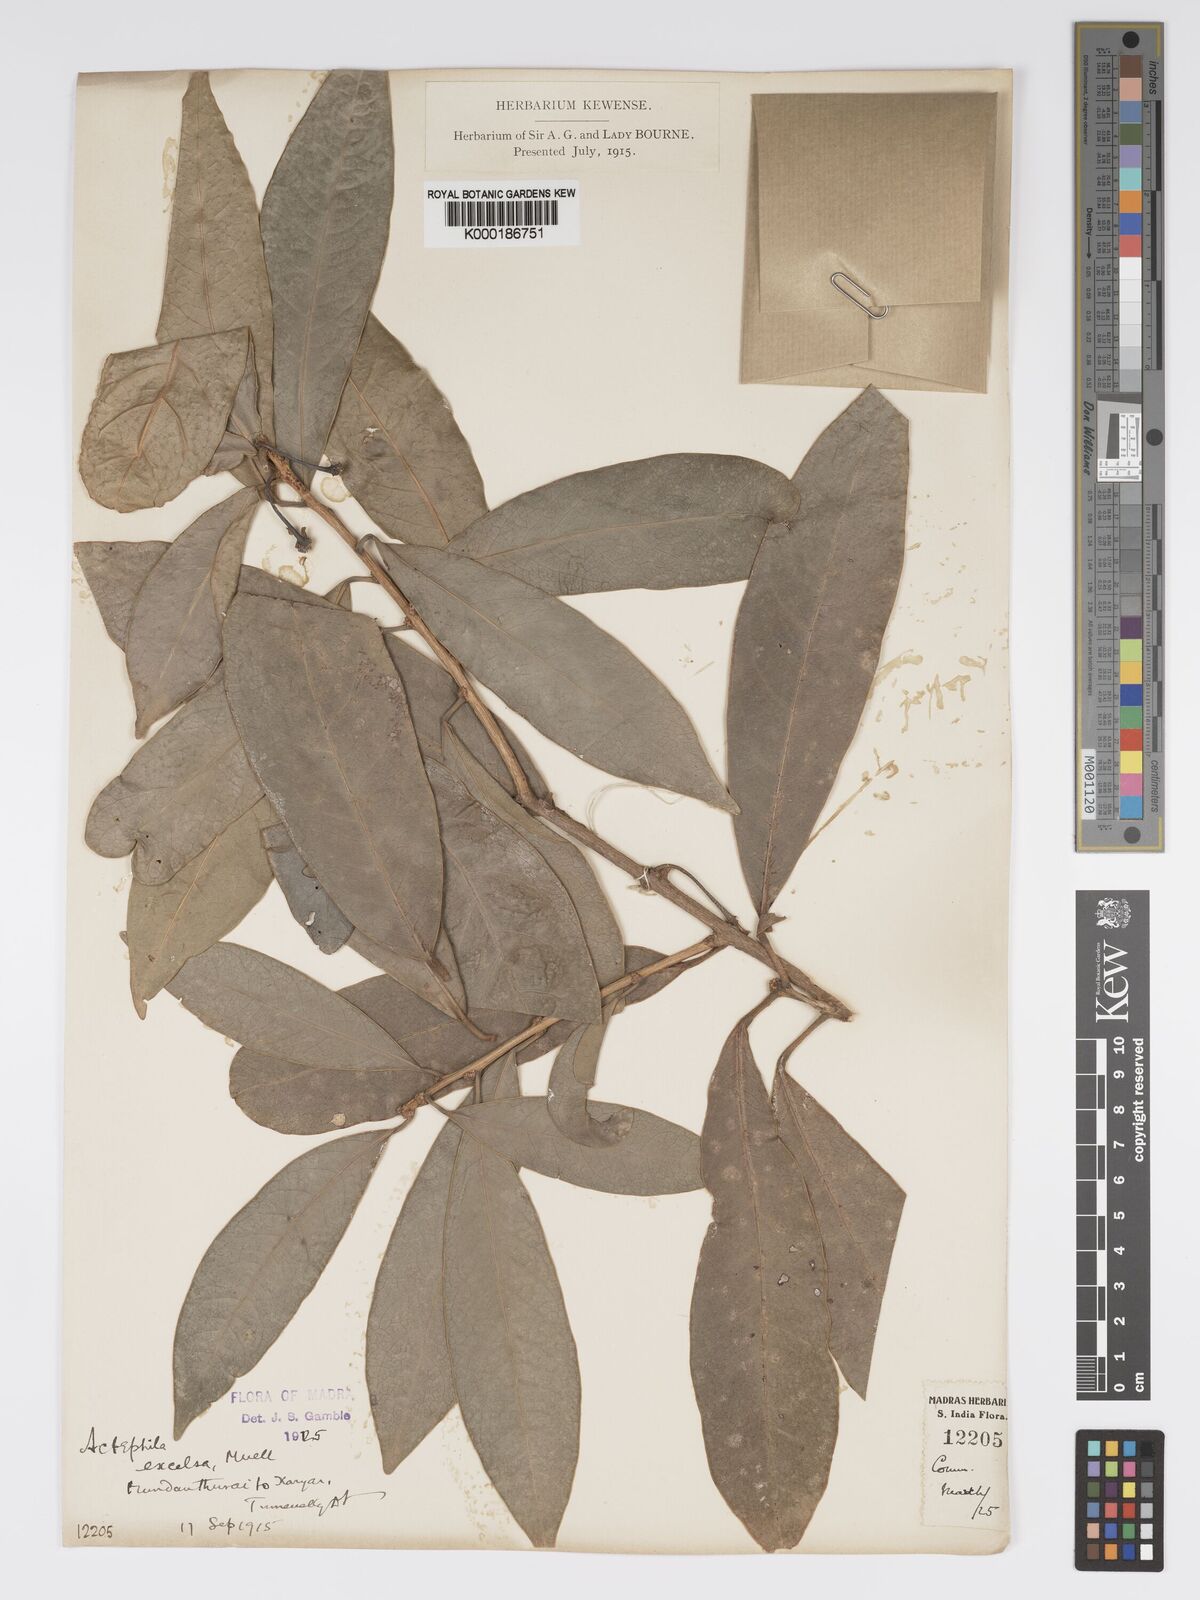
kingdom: Plantae
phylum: Tracheophyta
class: Magnoliopsida
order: Malpighiales
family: Phyllanthaceae
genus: Actephila
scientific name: Actephila excelsa
